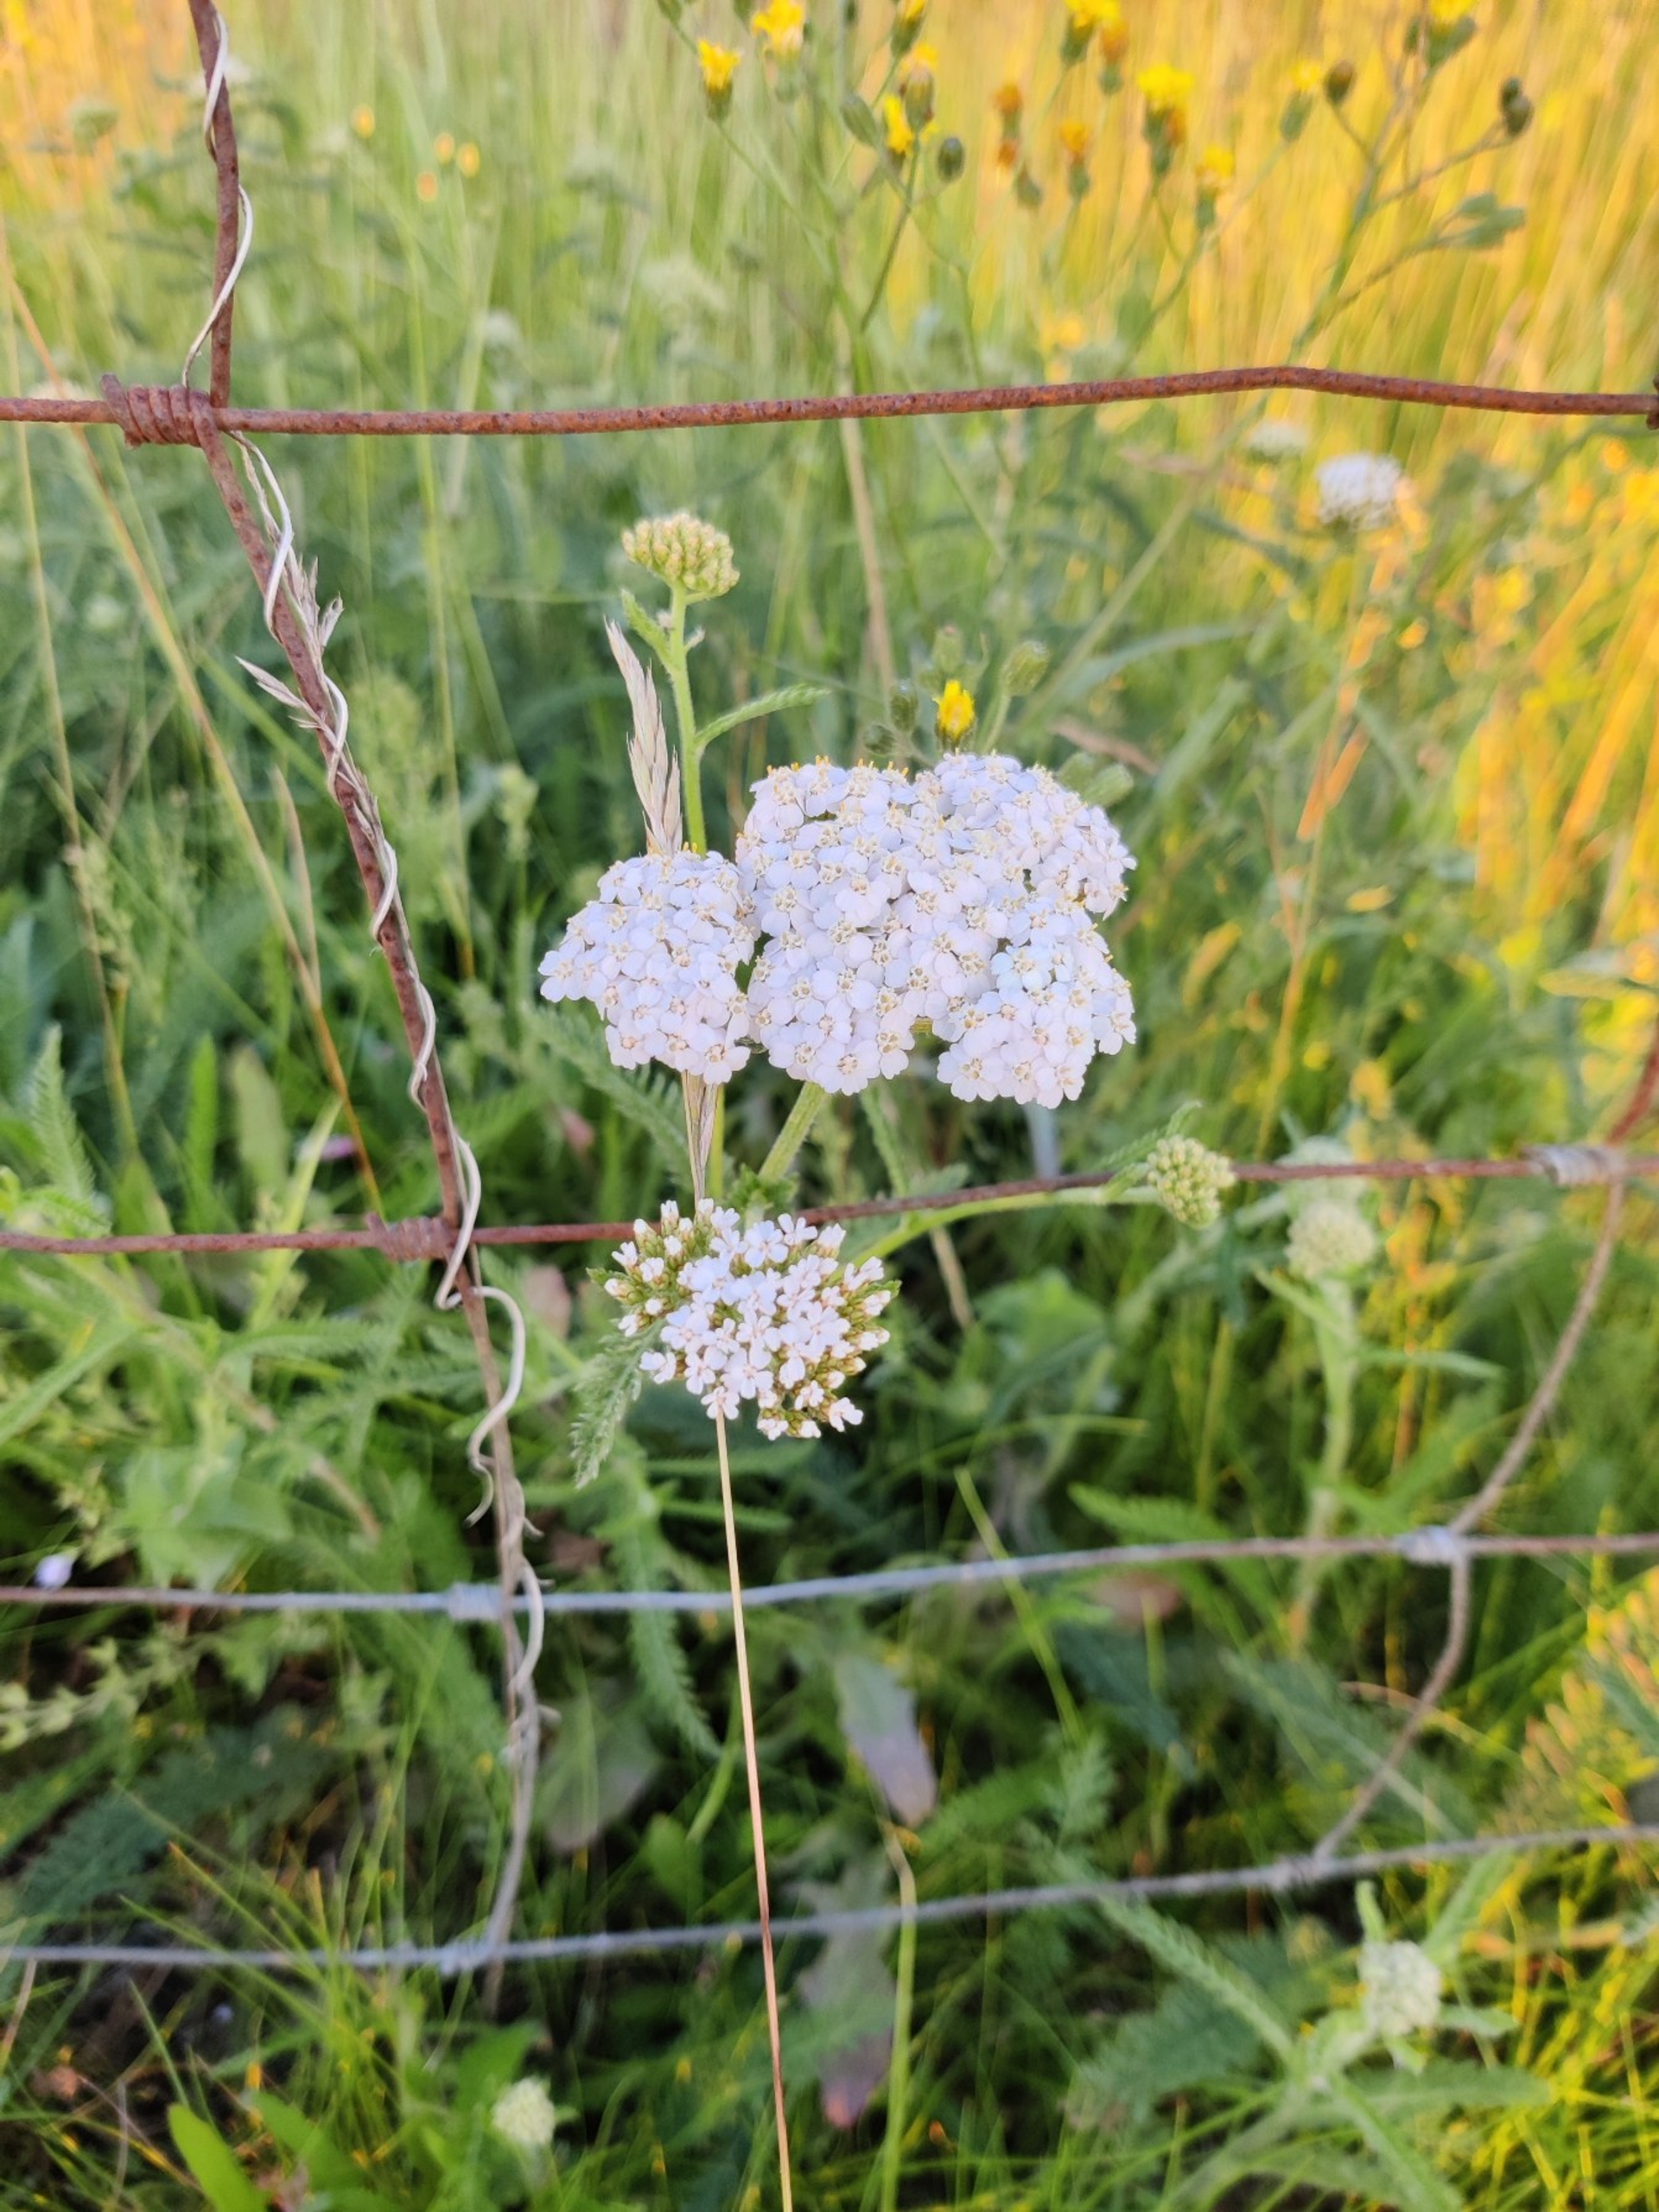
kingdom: Plantae
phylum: Tracheophyta
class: Magnoliopsida
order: Asterales
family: Asteraceae
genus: Achillea
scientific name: Achillea millefolium
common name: Almindelig røllike
